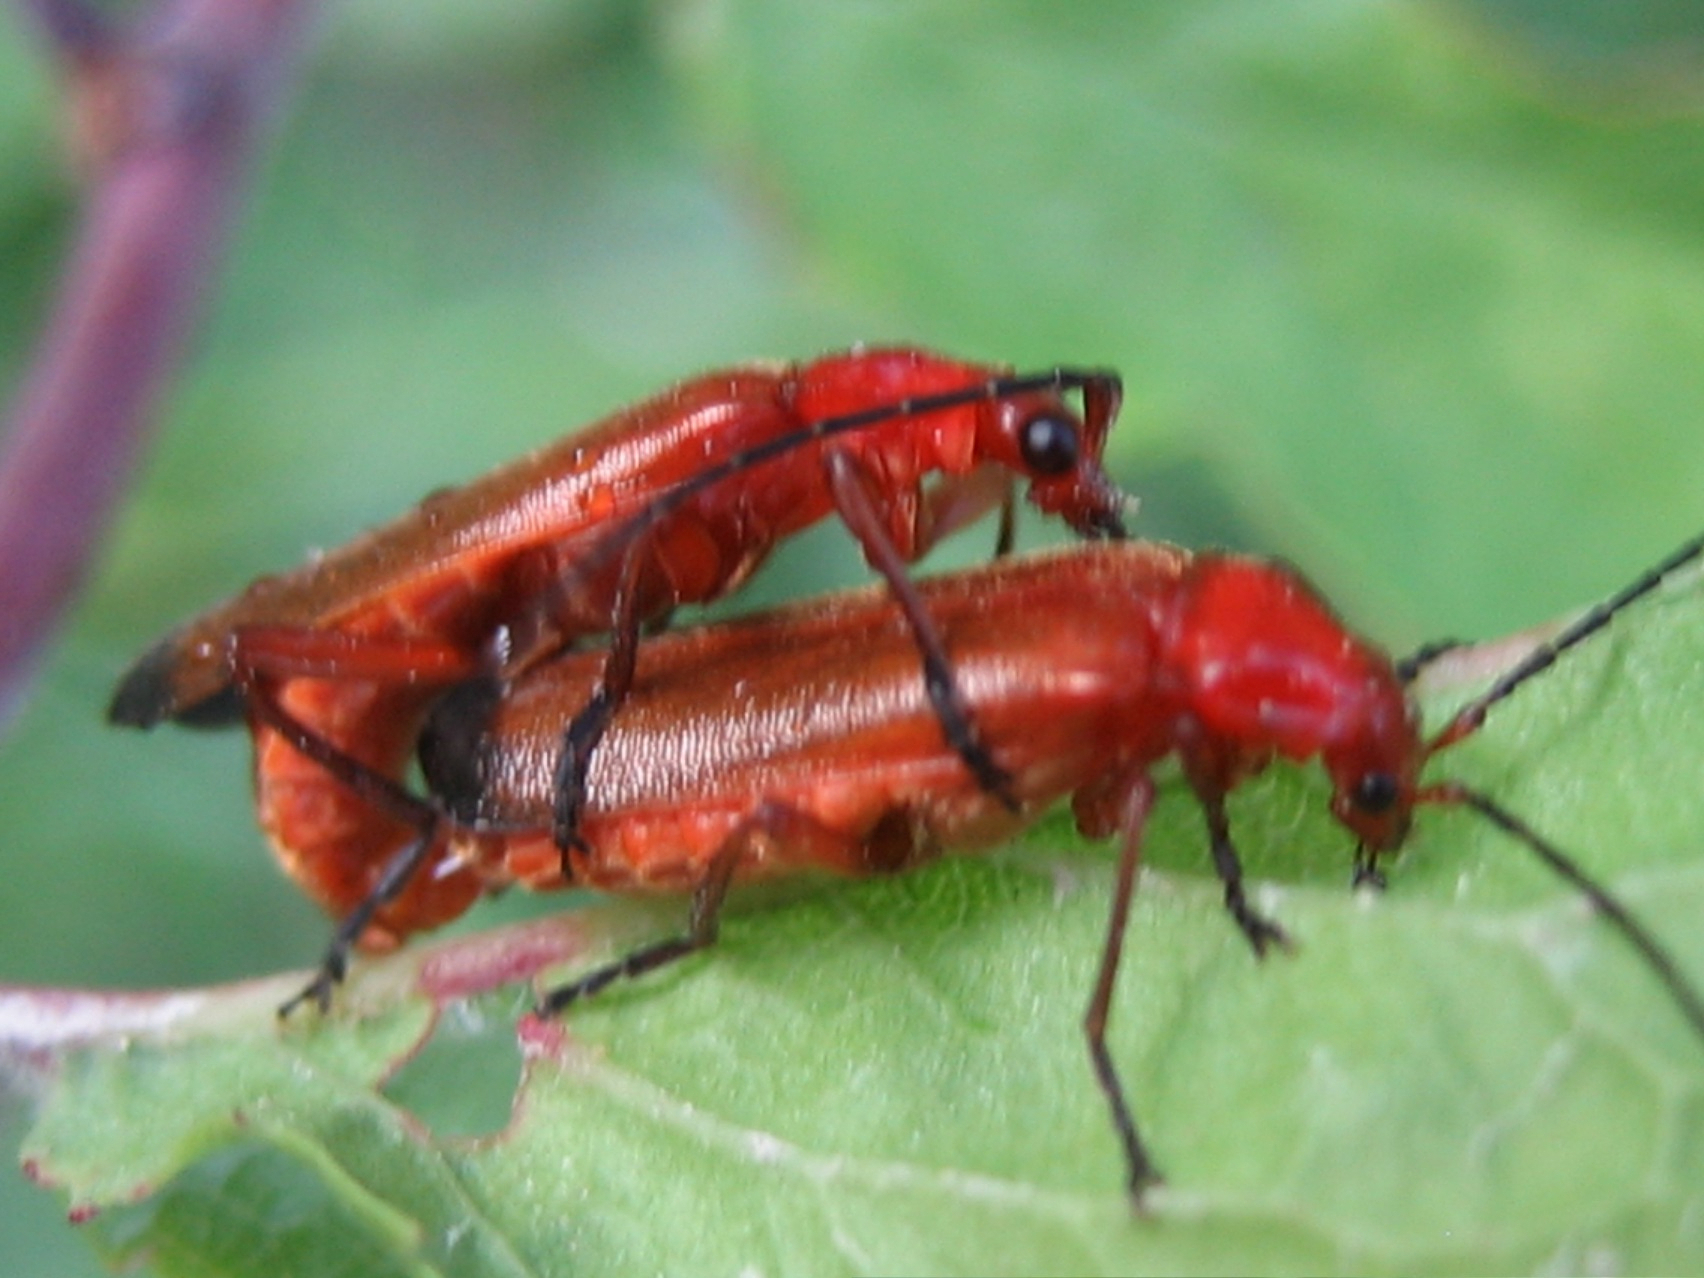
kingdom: Animalia
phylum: Arthropoda
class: Insecta
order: Coleoptera
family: Cantharidae
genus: Rhagonycha
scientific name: Rhagonycha fulva
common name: Præstebille
